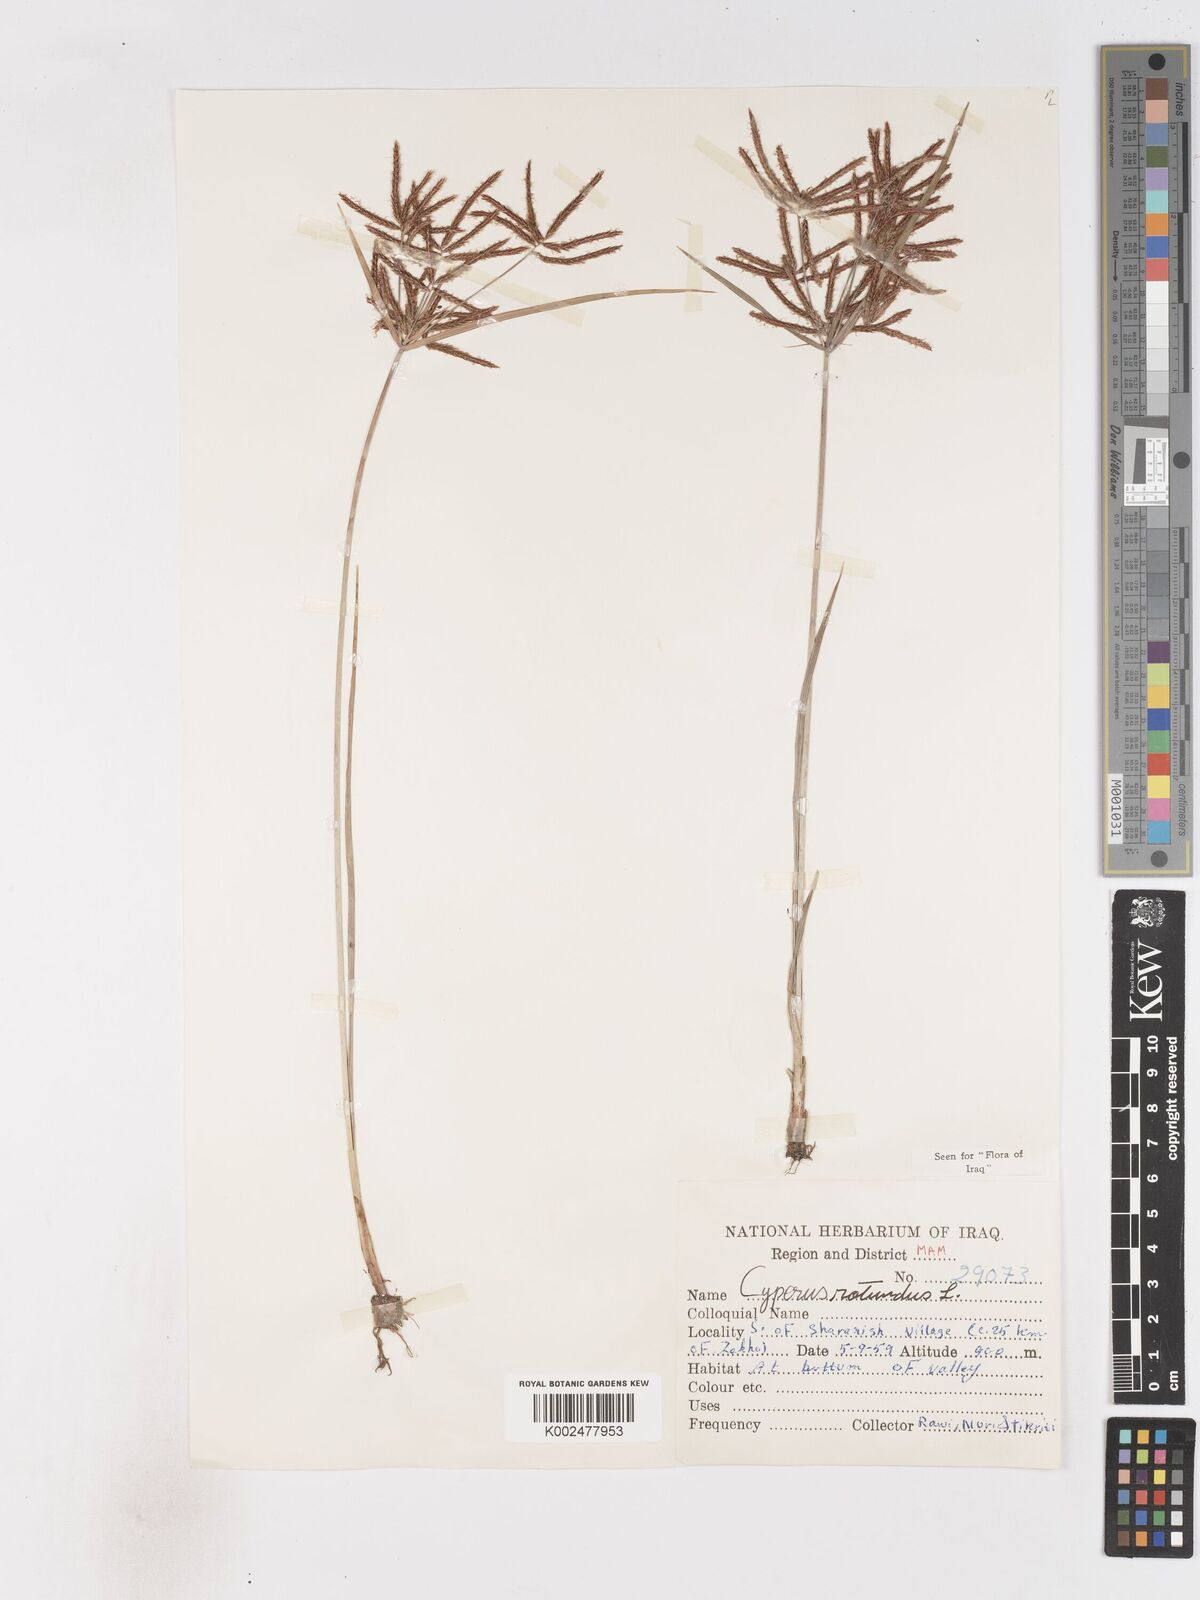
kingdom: Plantae
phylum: Tracheophyta
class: Liliopsida
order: Poales
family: Cyperaceae
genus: Cyperus
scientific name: Cyperus rotundus
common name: Nutgrass
